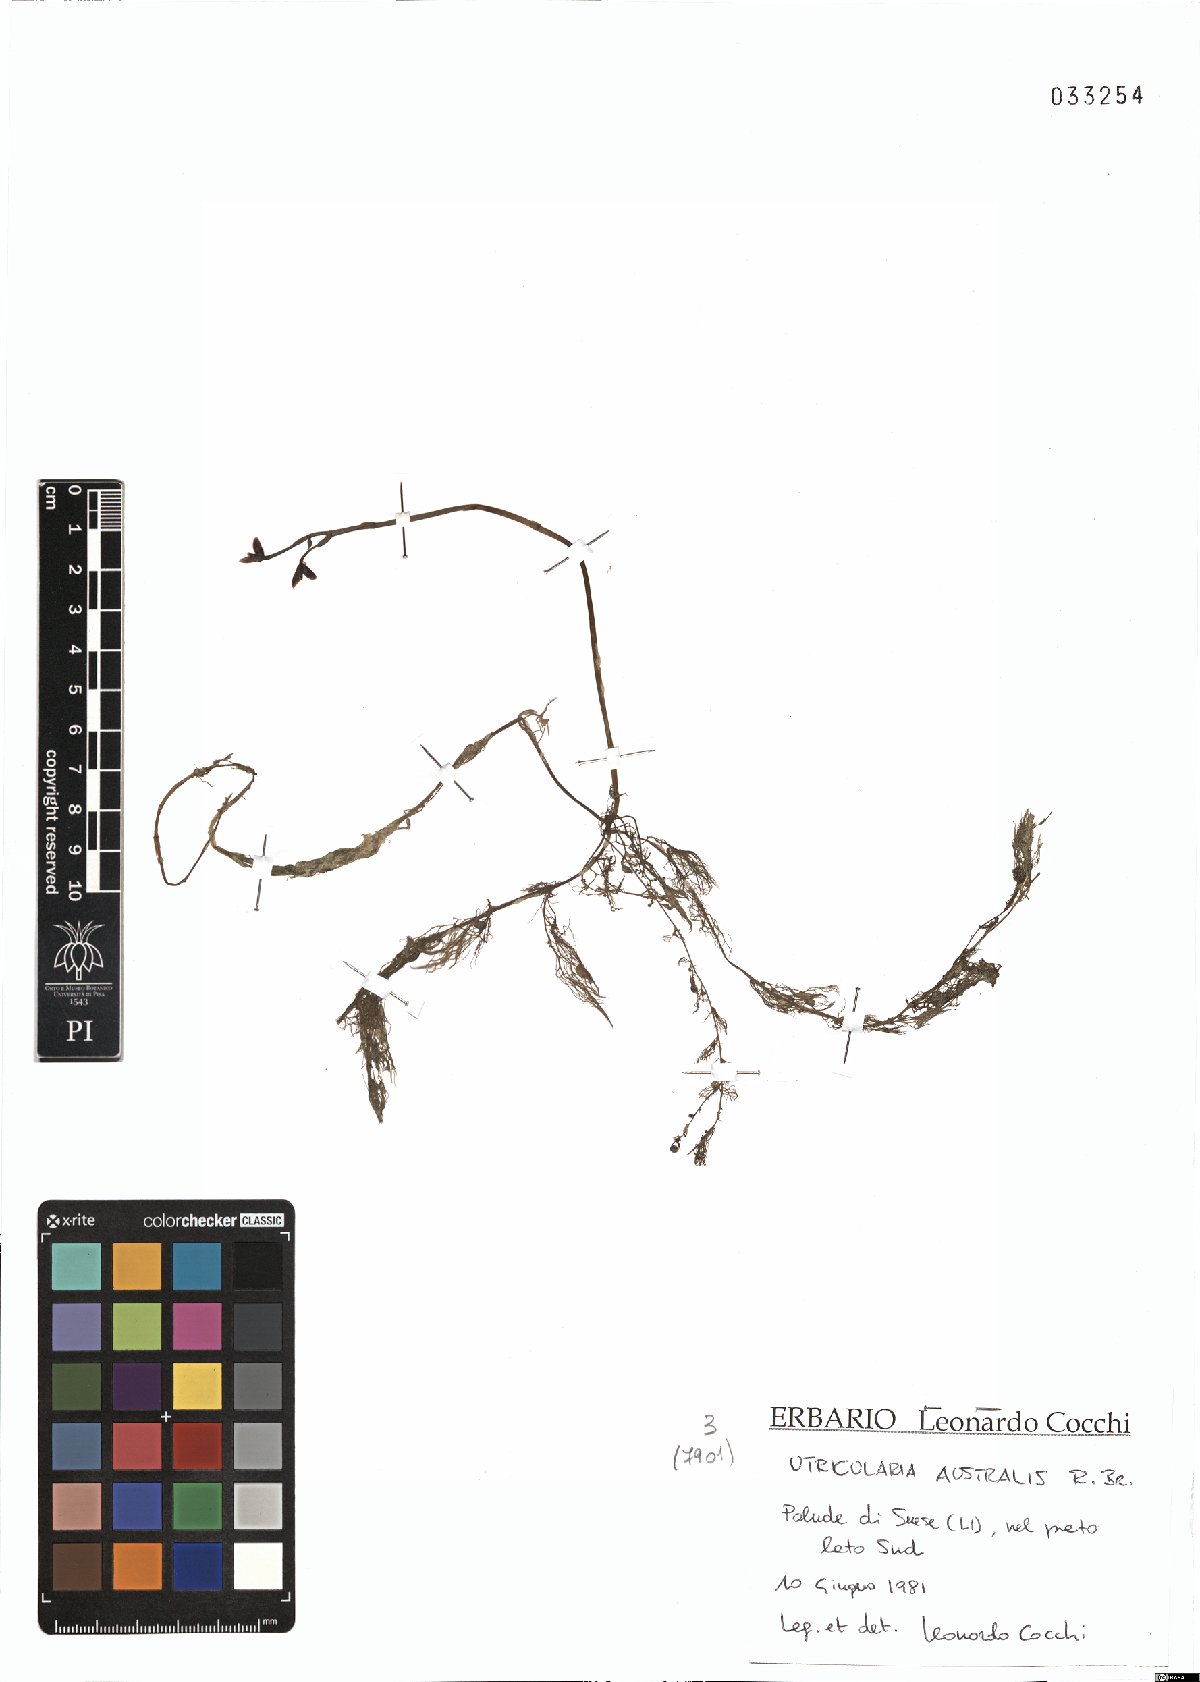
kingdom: Plantae
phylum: Tracheophyta
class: Magnoliopsida
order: Lamiales
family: Lentibulariaceae
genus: Utricularia
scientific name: Utricularia australis
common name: Bladderwort
